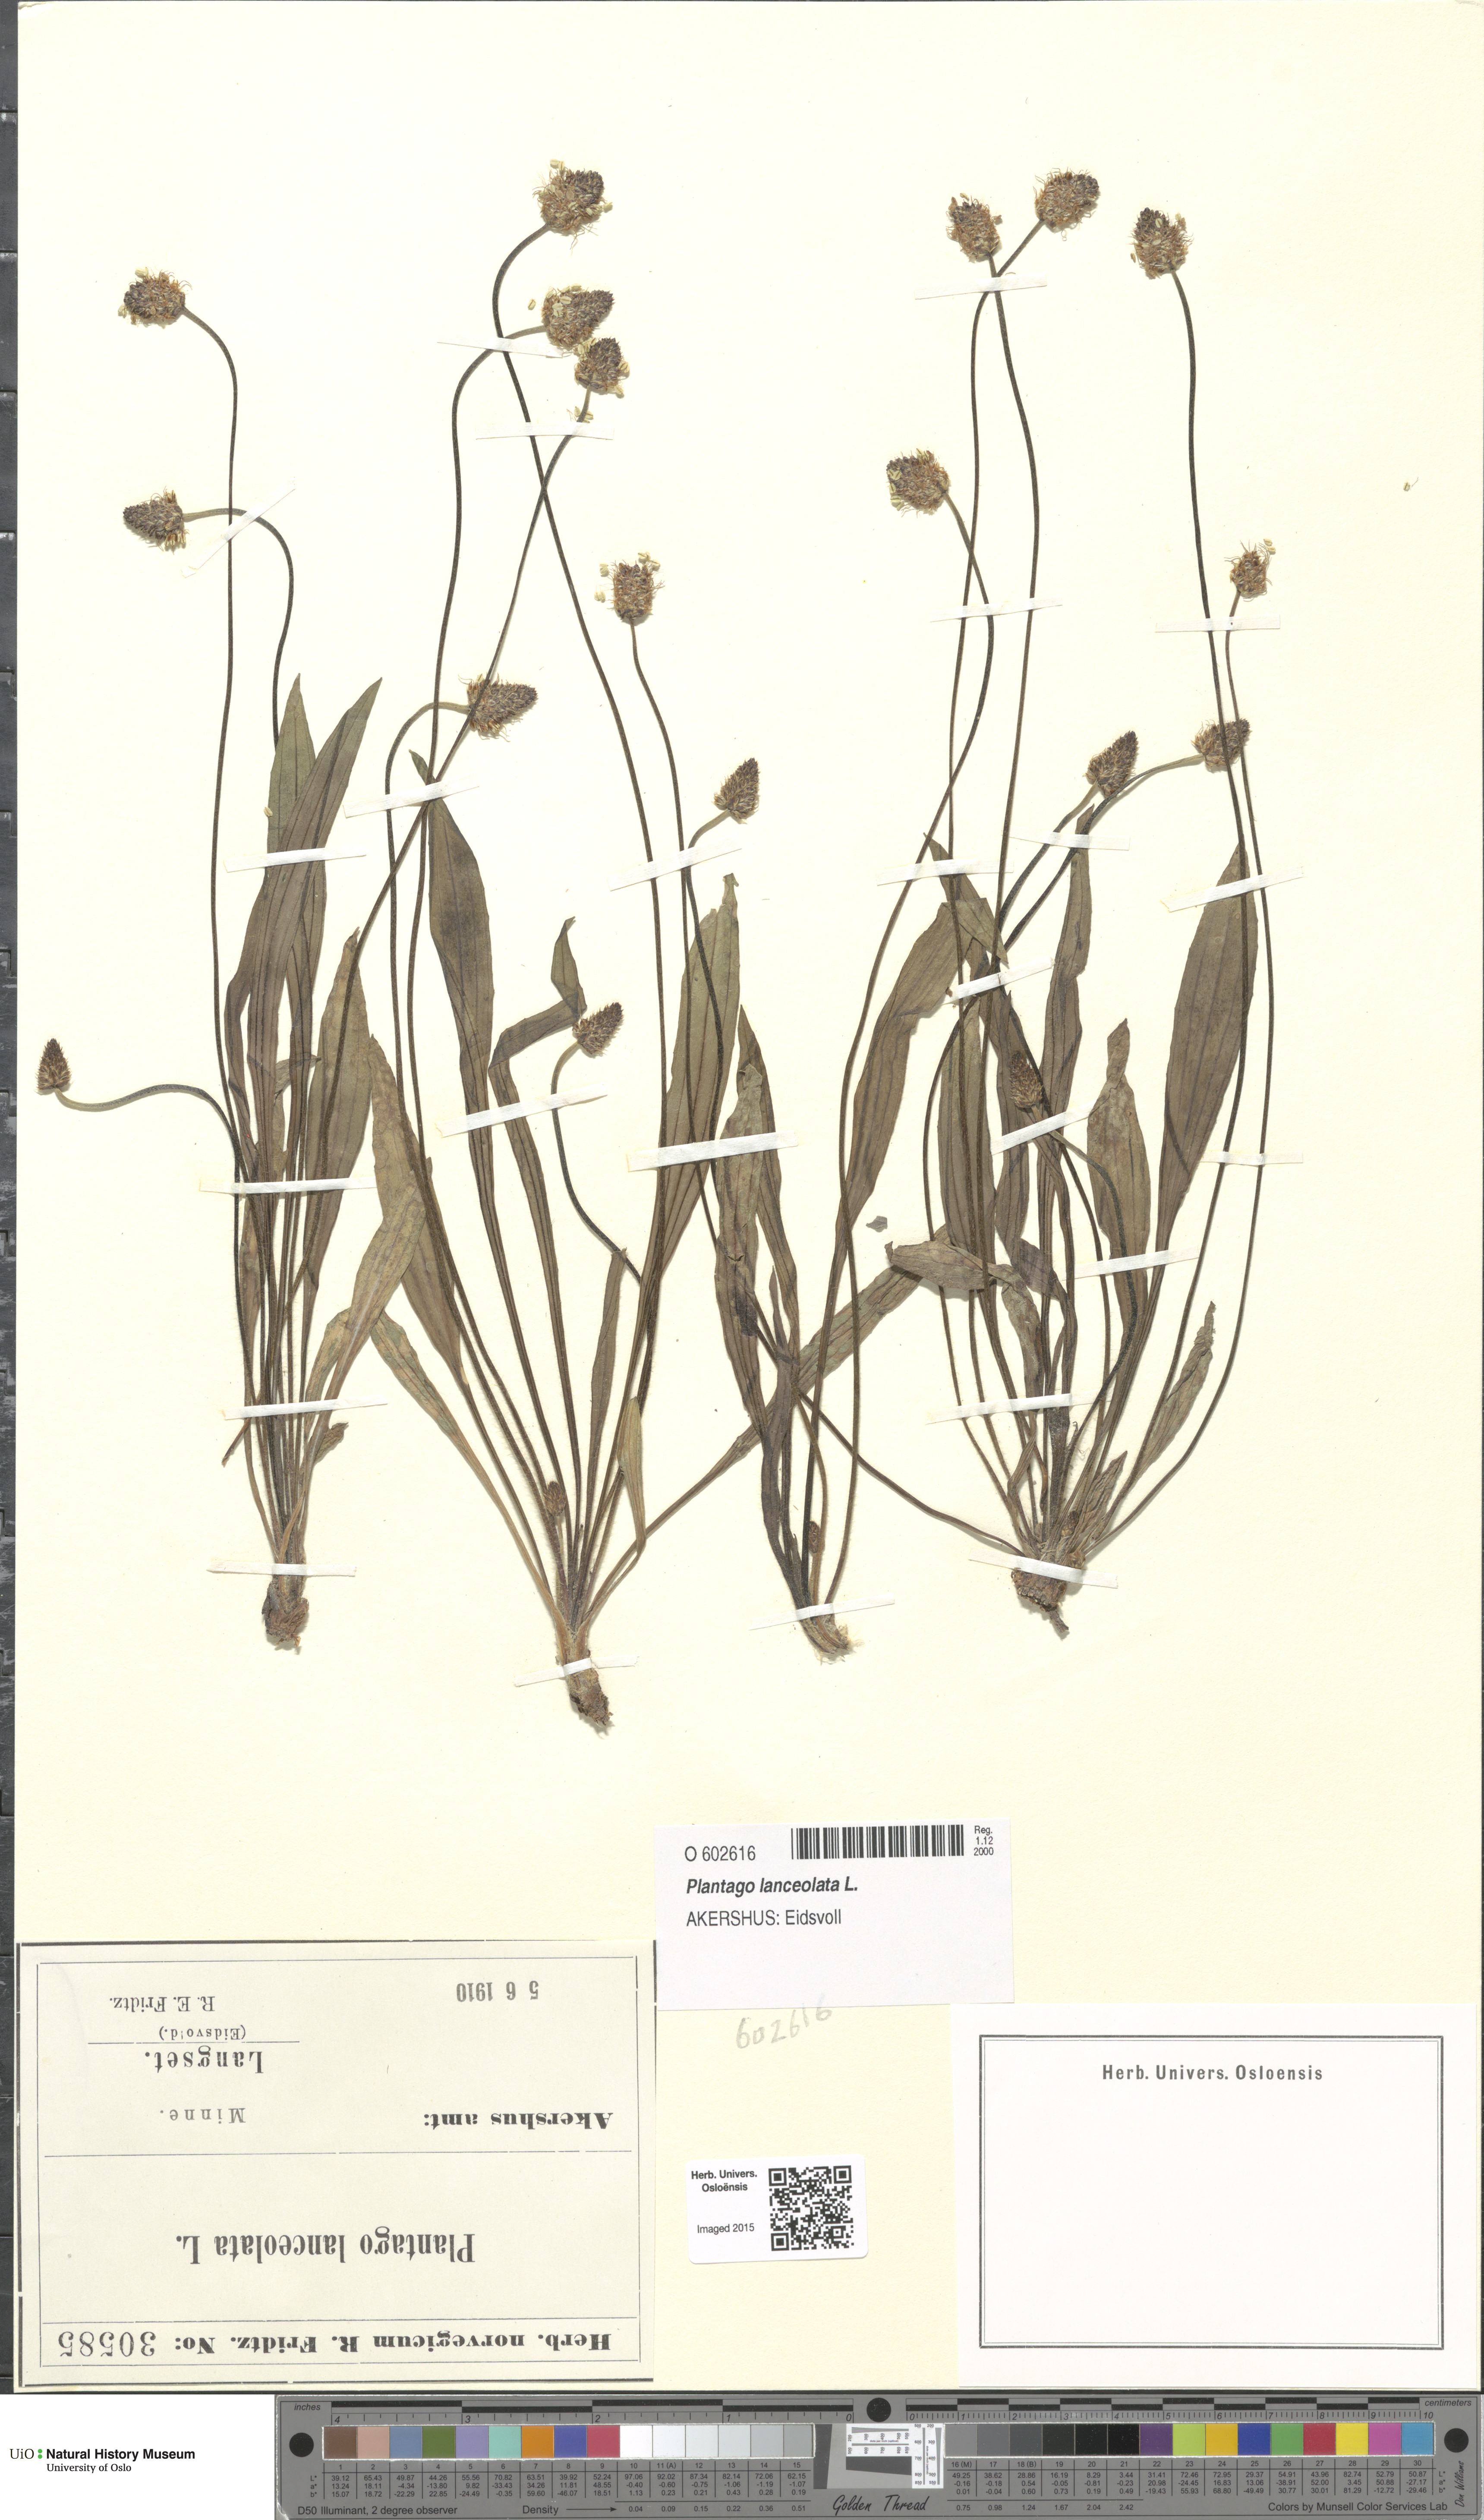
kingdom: Plantae
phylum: Tracheophyta
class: Magnoliopsida
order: Lamiales
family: Plantaginaceae
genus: Plantago
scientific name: Plantago lanceolata
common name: Ribwort plantain
